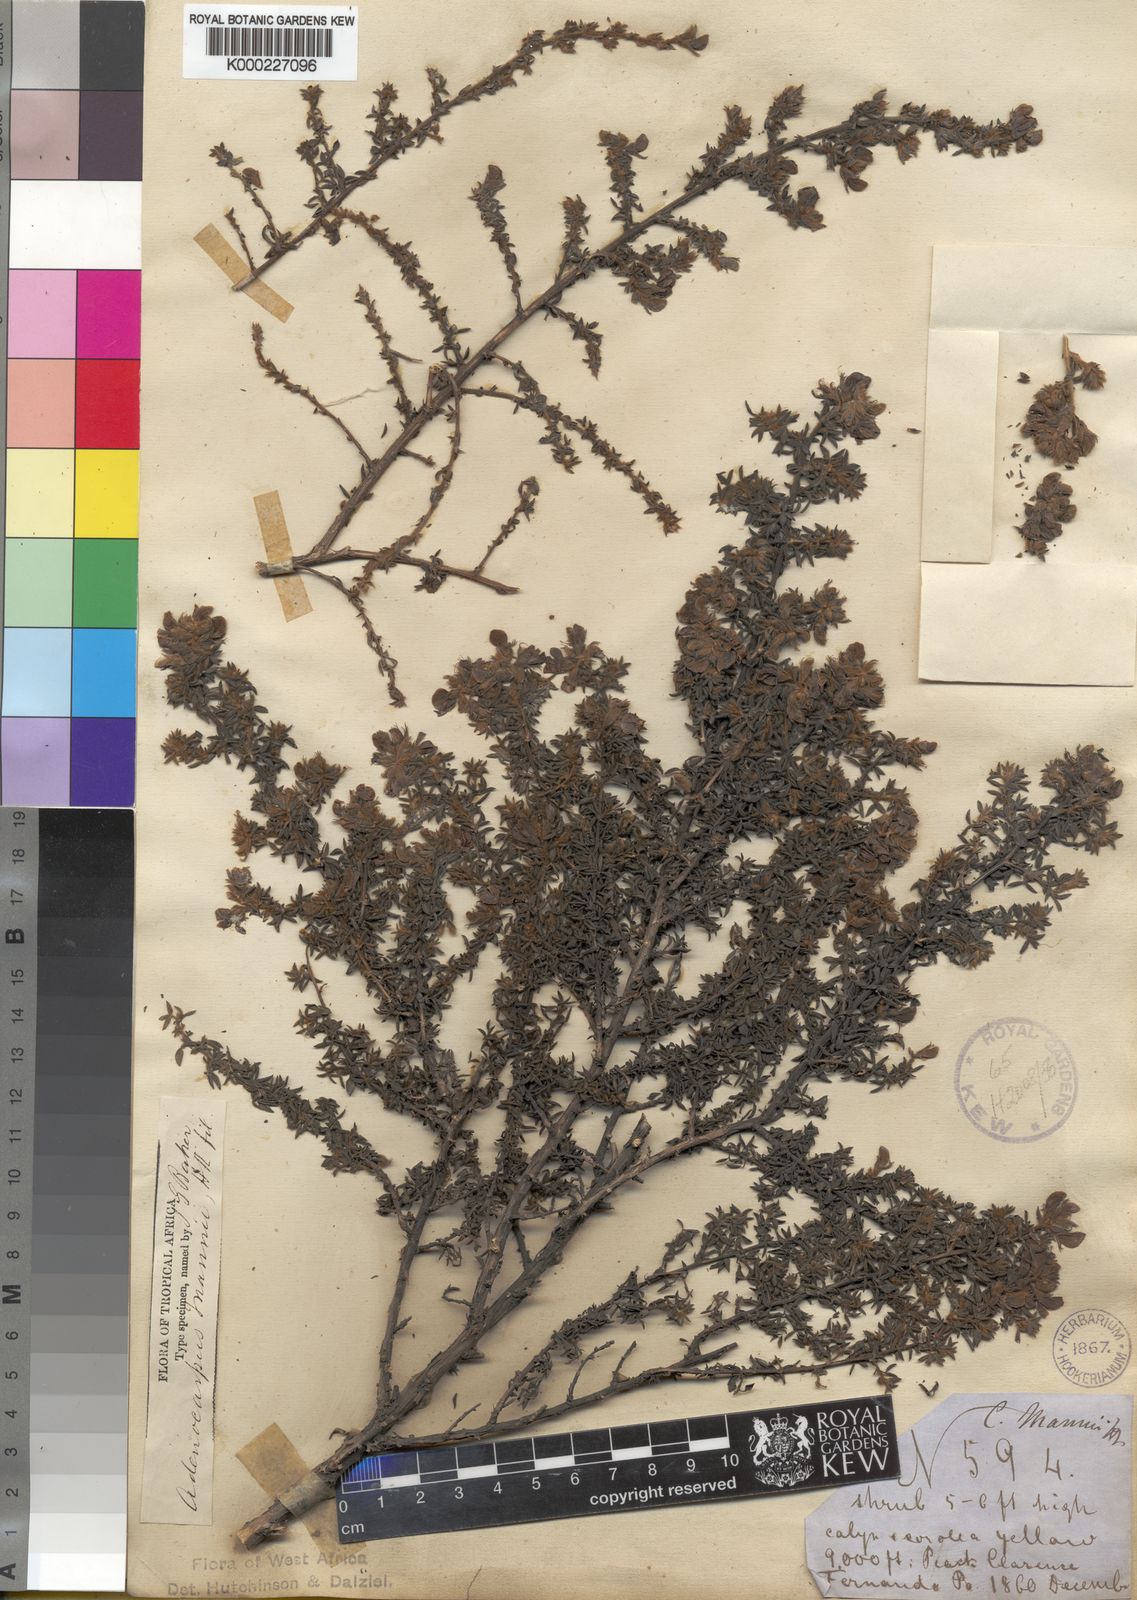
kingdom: Plantae
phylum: Tracheophyta
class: Magnoliopsida
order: Fabales
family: Fabaceae
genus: Adenocarpus
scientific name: Adenocarpus mannii
